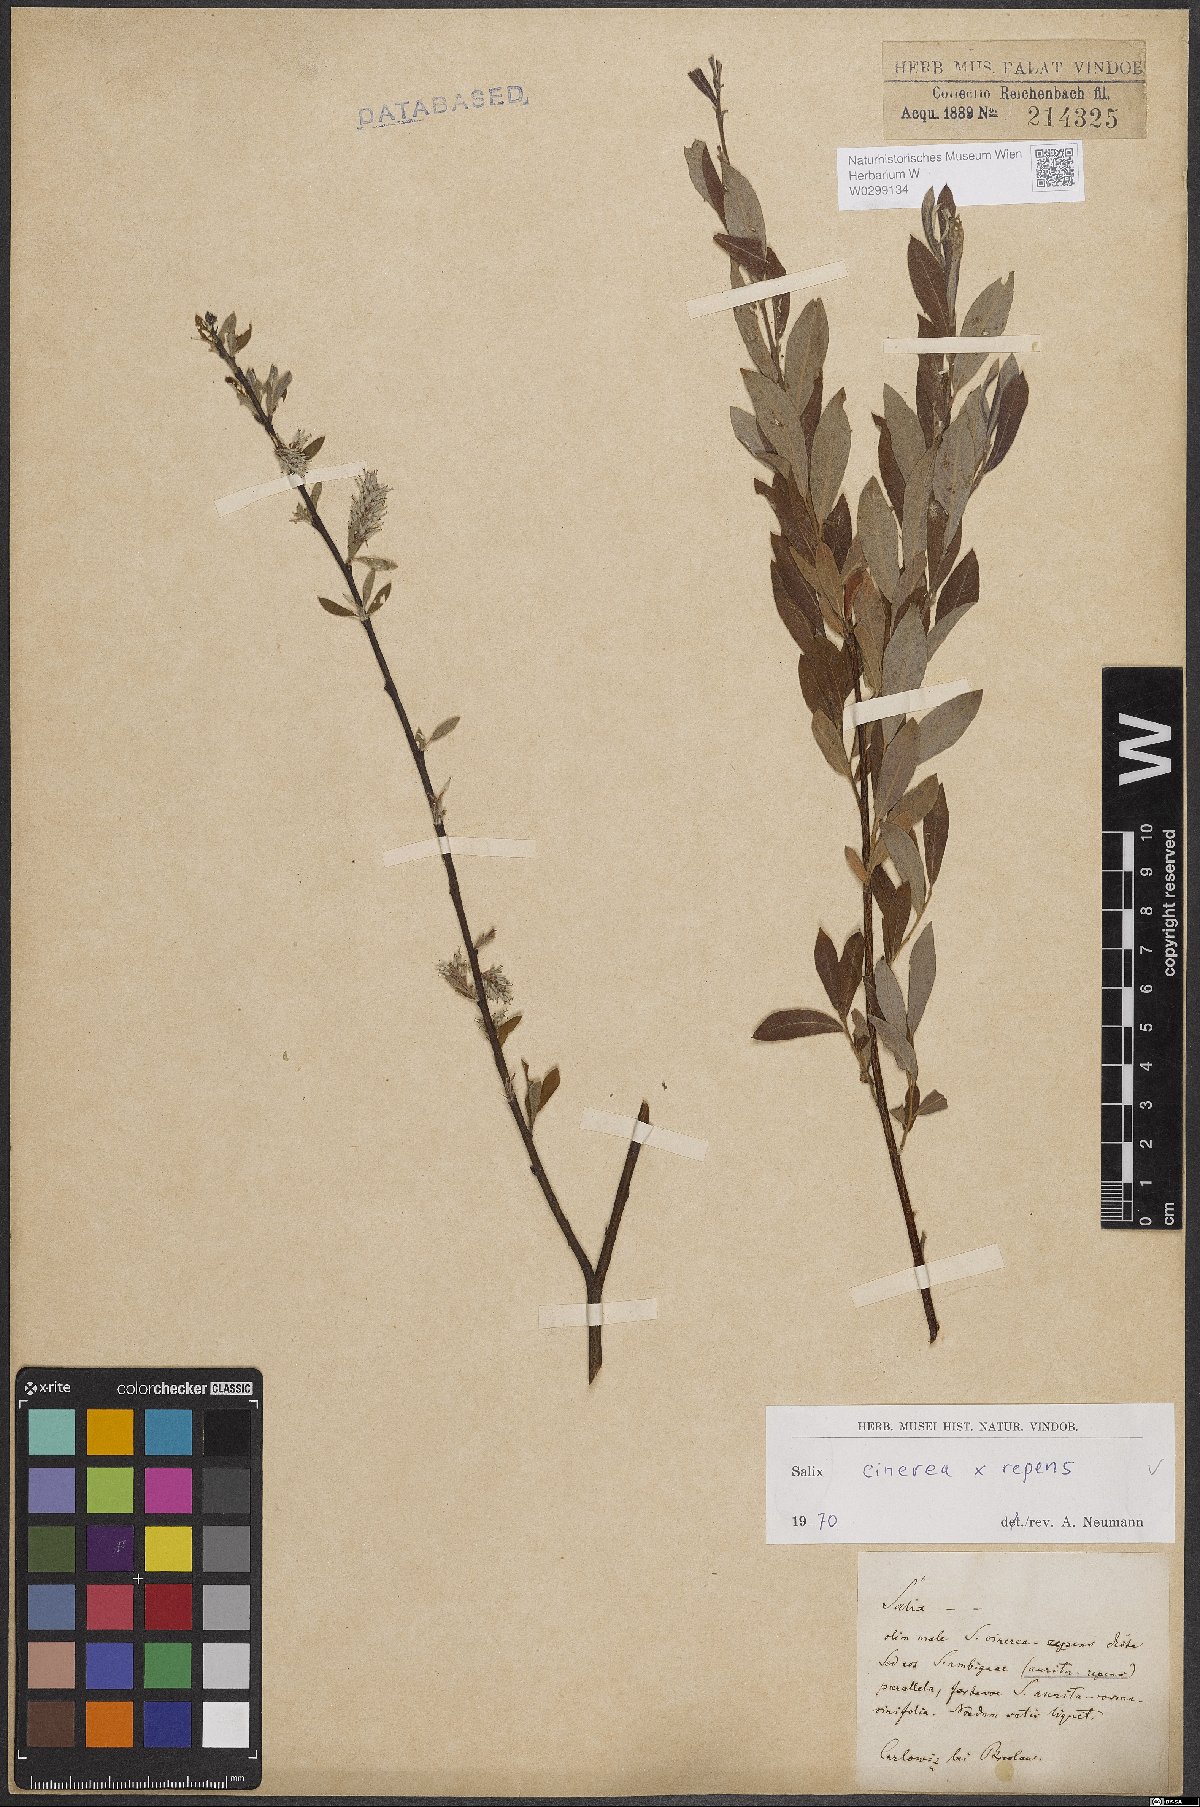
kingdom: Plantae
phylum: Tracheophyta
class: Magnoliopsida
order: Malpighiales
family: Salicaceae
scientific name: Salicaceae
